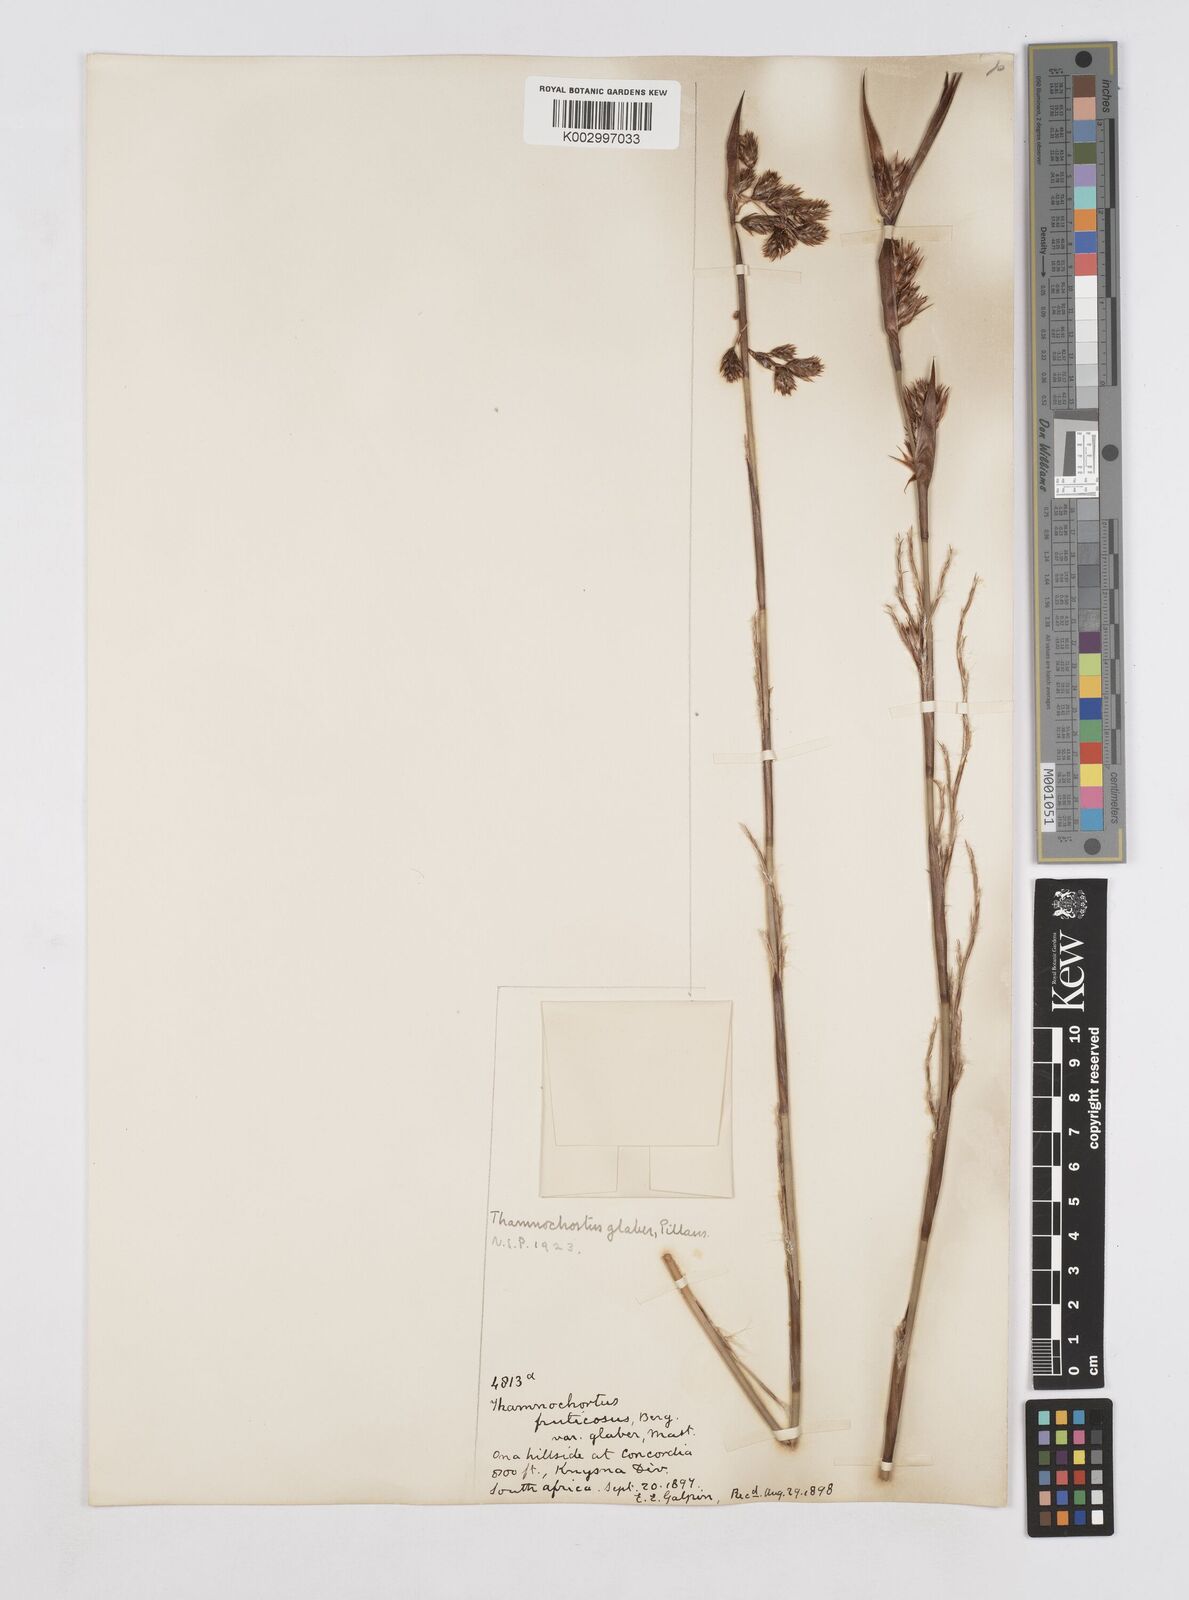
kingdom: Plantae
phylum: Tracheophyta
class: Liliopsida
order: Poales
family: Restionaceae
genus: Thamnochortus
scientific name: Thamnochortus glaber
